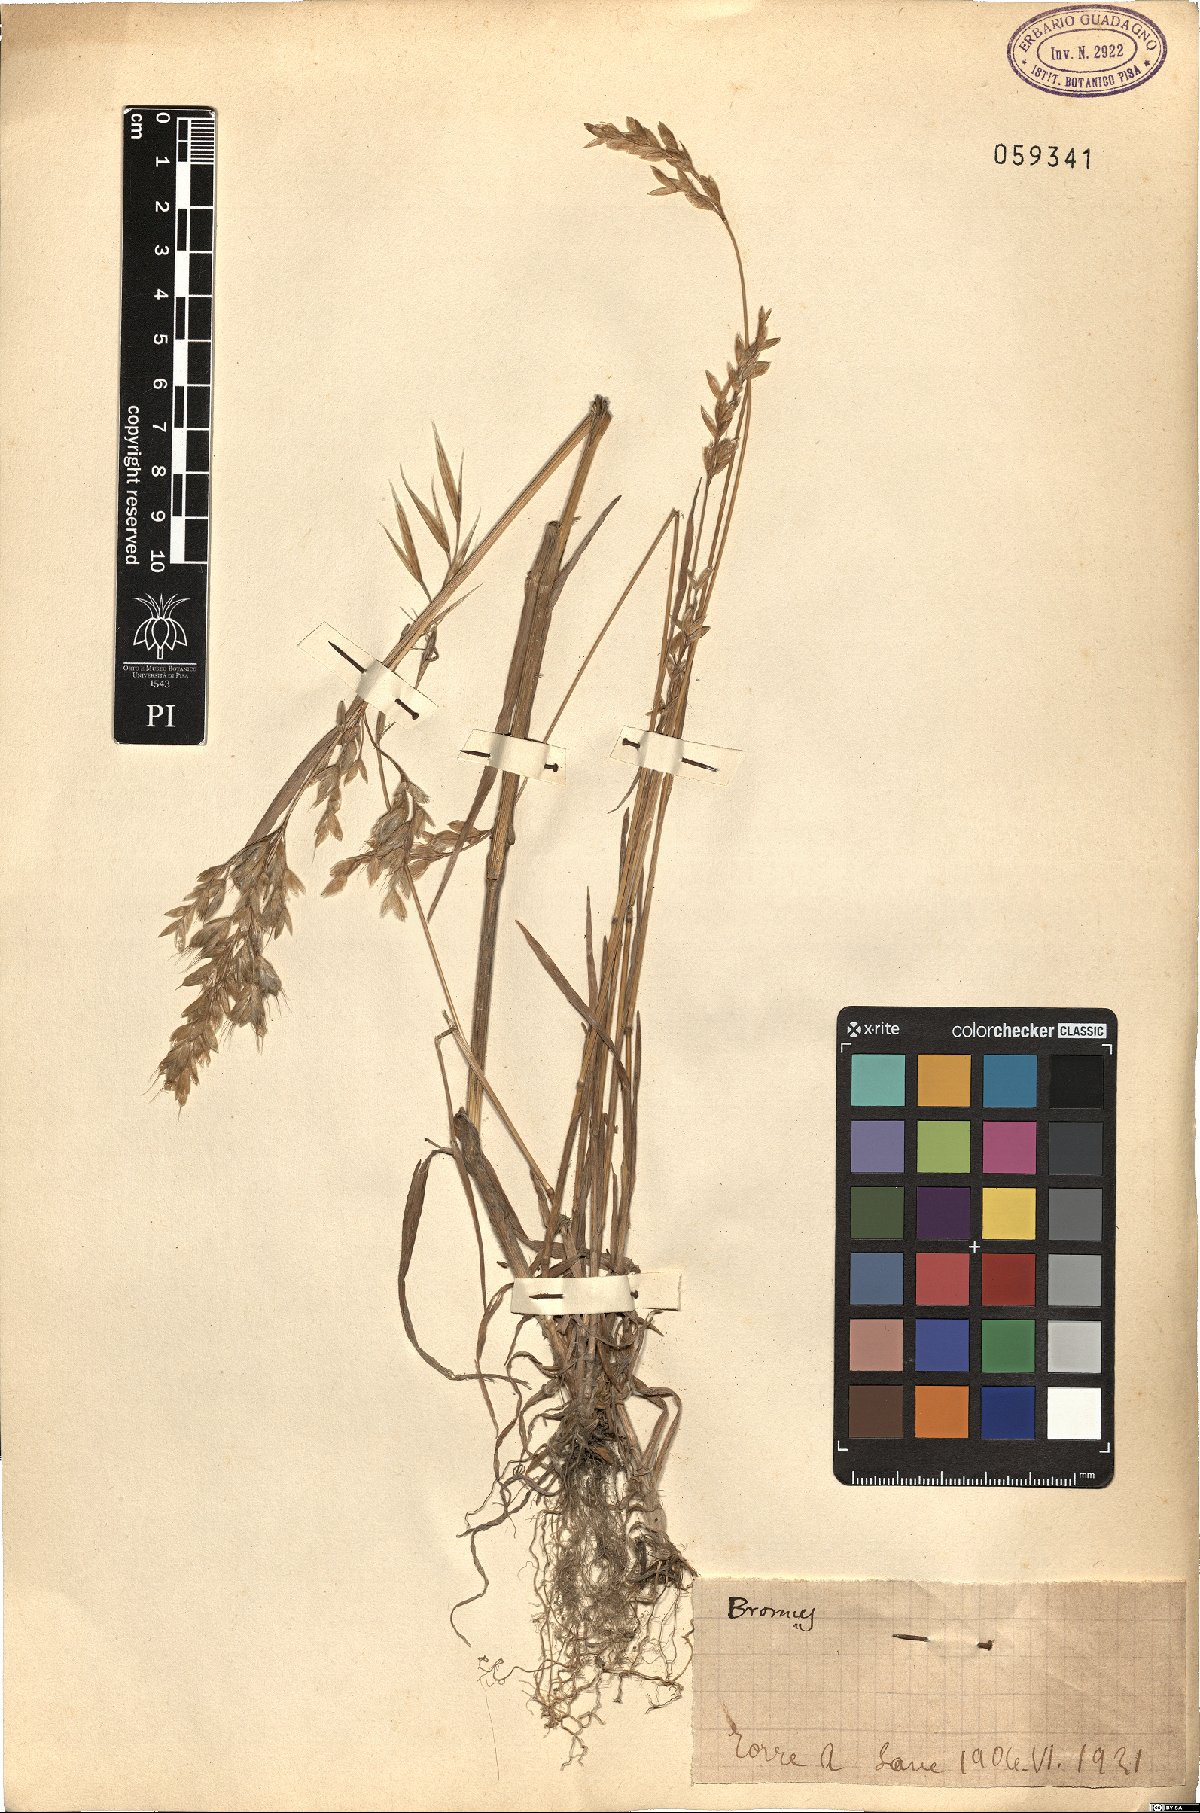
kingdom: Plantae
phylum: Tracheophyta
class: Liliopsida
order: Poales
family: Poaceae
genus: Bromus
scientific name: Bromus
